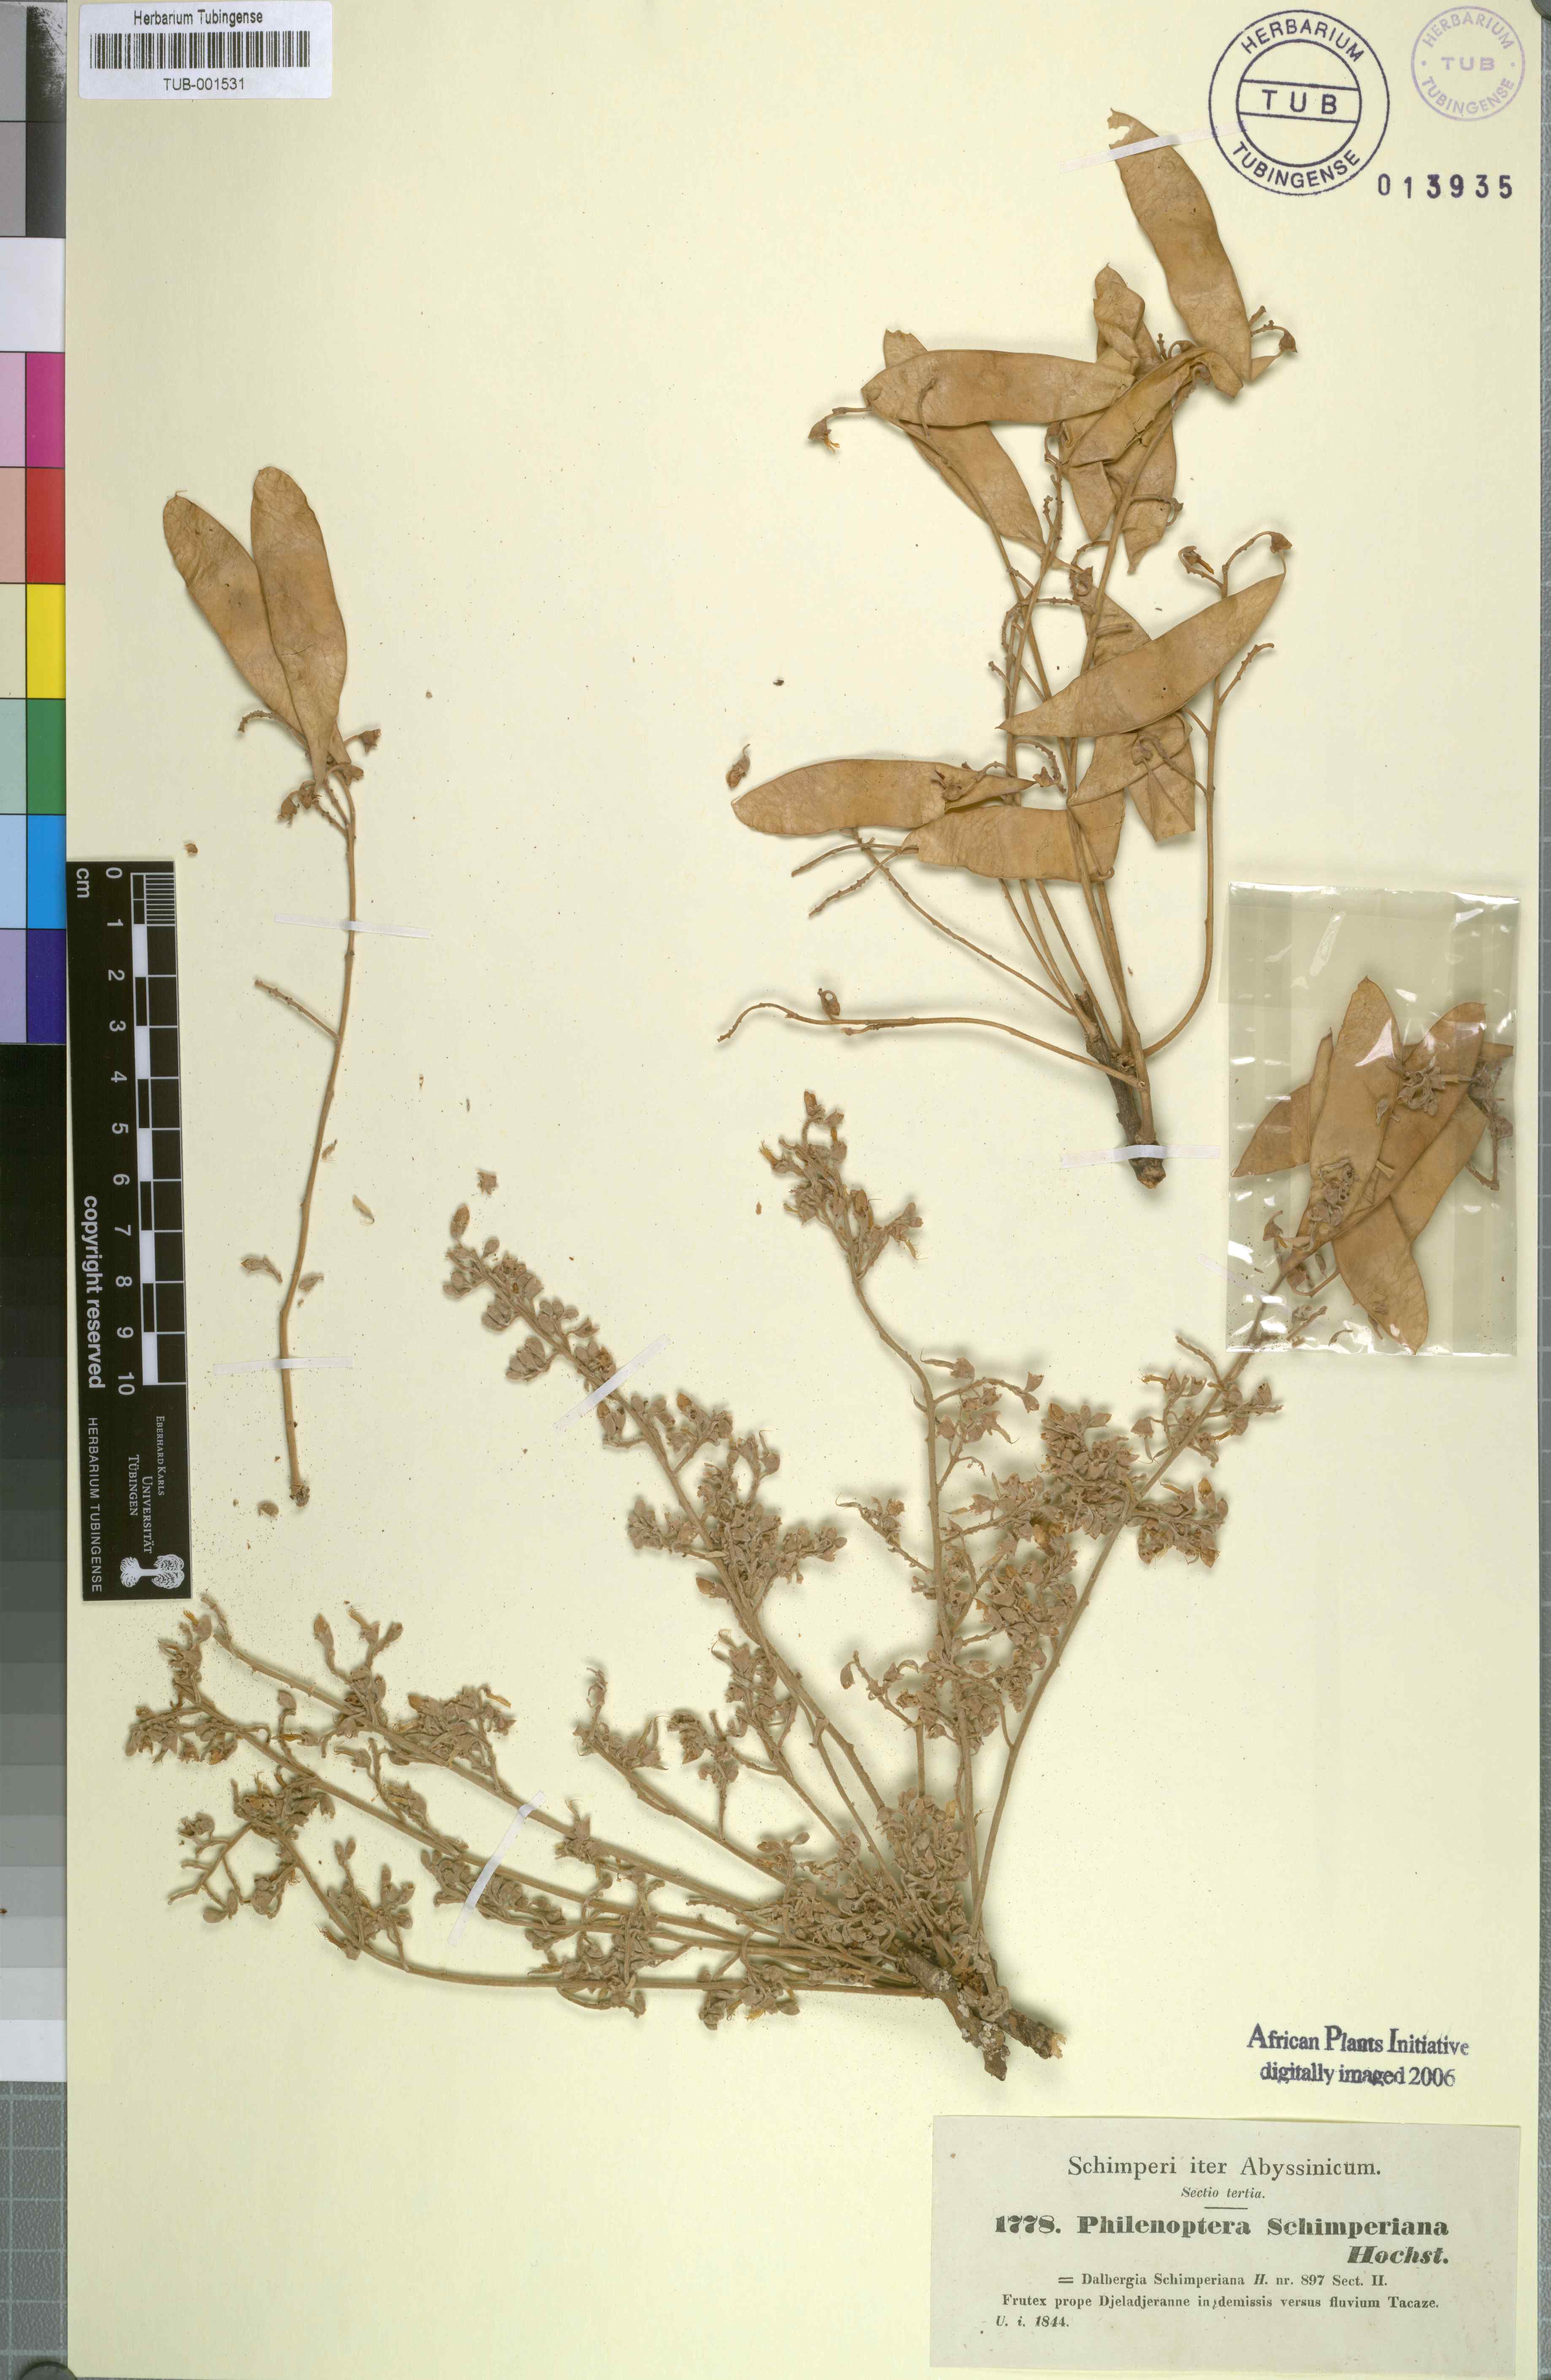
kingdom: Plantae
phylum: Tracheophyta
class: Magnoliopsida
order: Fabales
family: Fabaceae
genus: Philenoptera
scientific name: Philenoptera laxiflora
